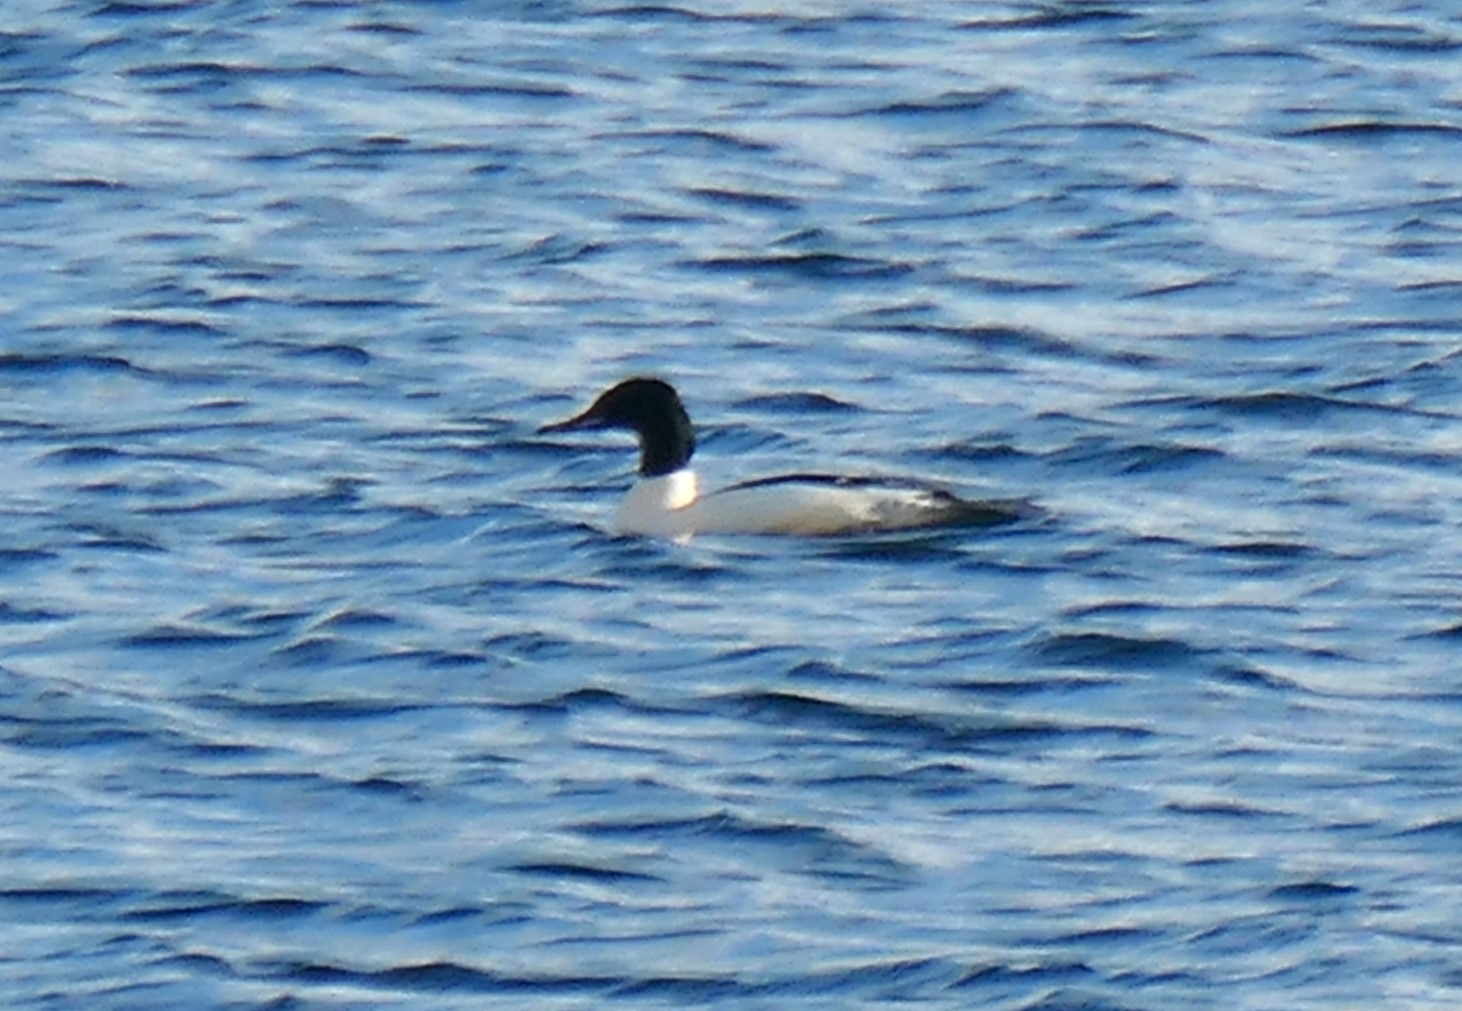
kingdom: Animalia
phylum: Chordata
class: Aves
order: Anseriformes
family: Anatidae
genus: Mergus
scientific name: Mergus merganser
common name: Stor skallesluger
